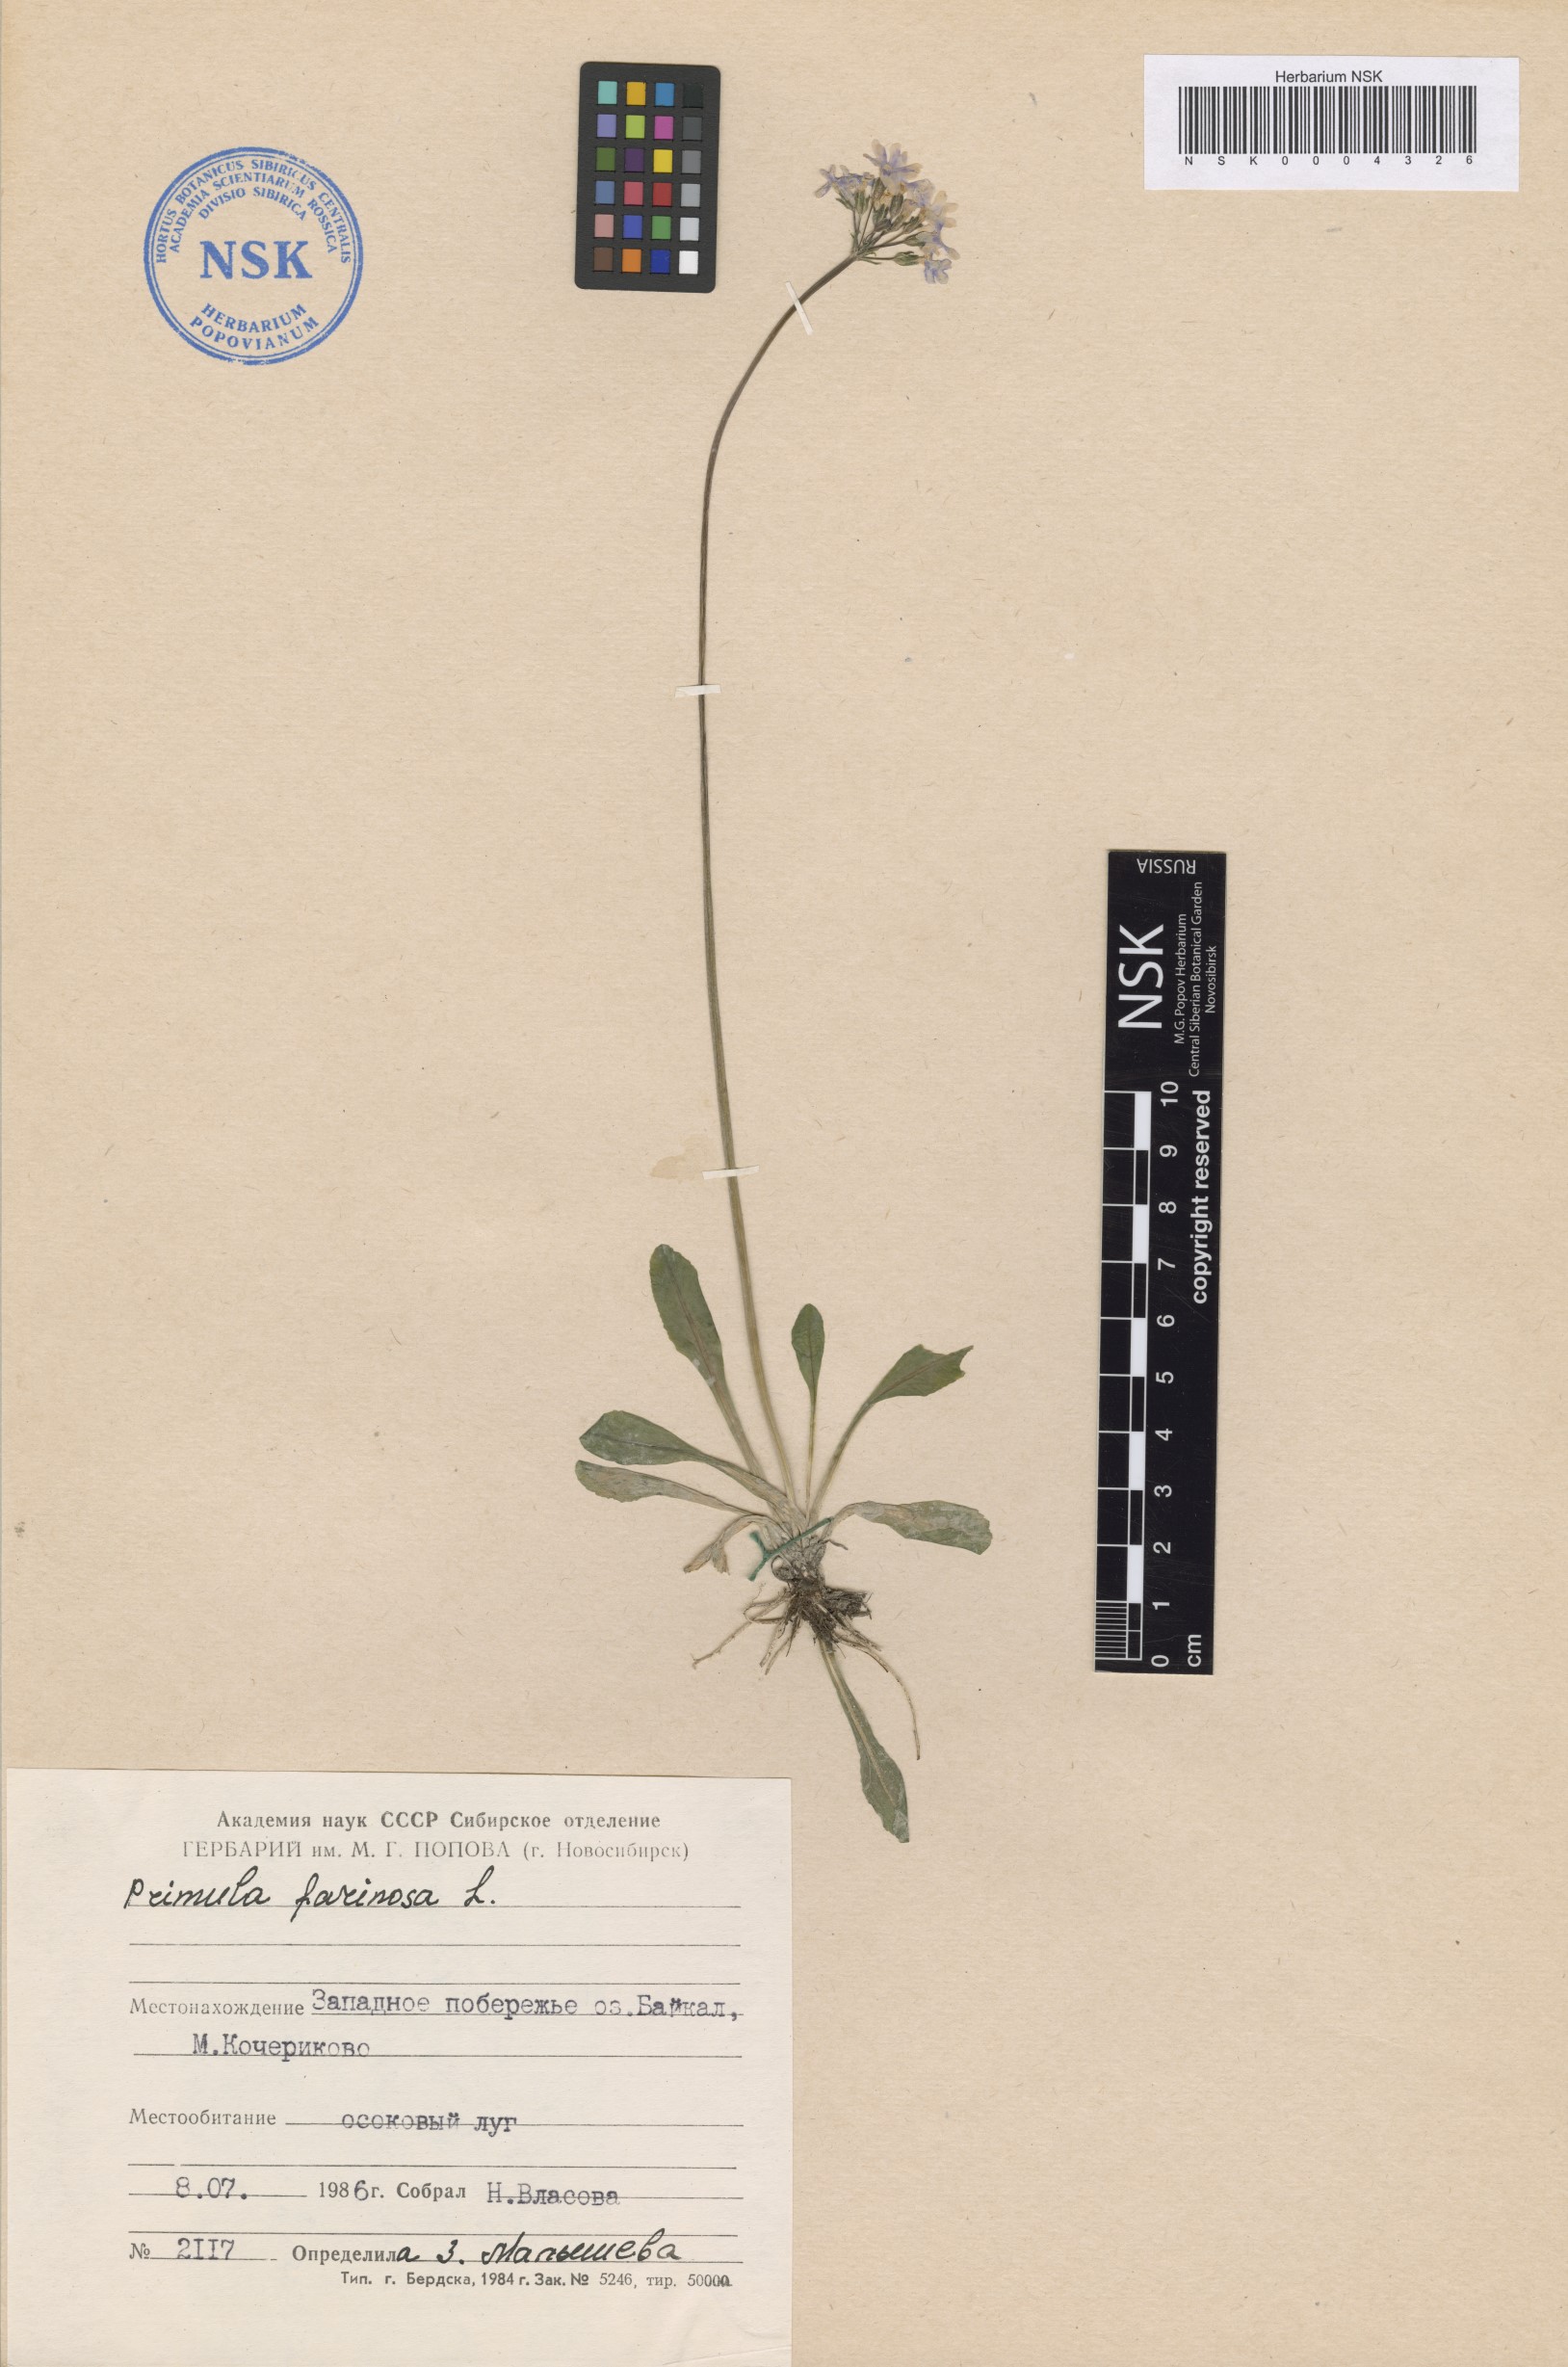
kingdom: Plantae
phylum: Tracheophyta
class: Magnoliopsida
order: Ericales
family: Primulaceae
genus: Primula
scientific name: Primula farinosa
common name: Bird's-eye primrose
